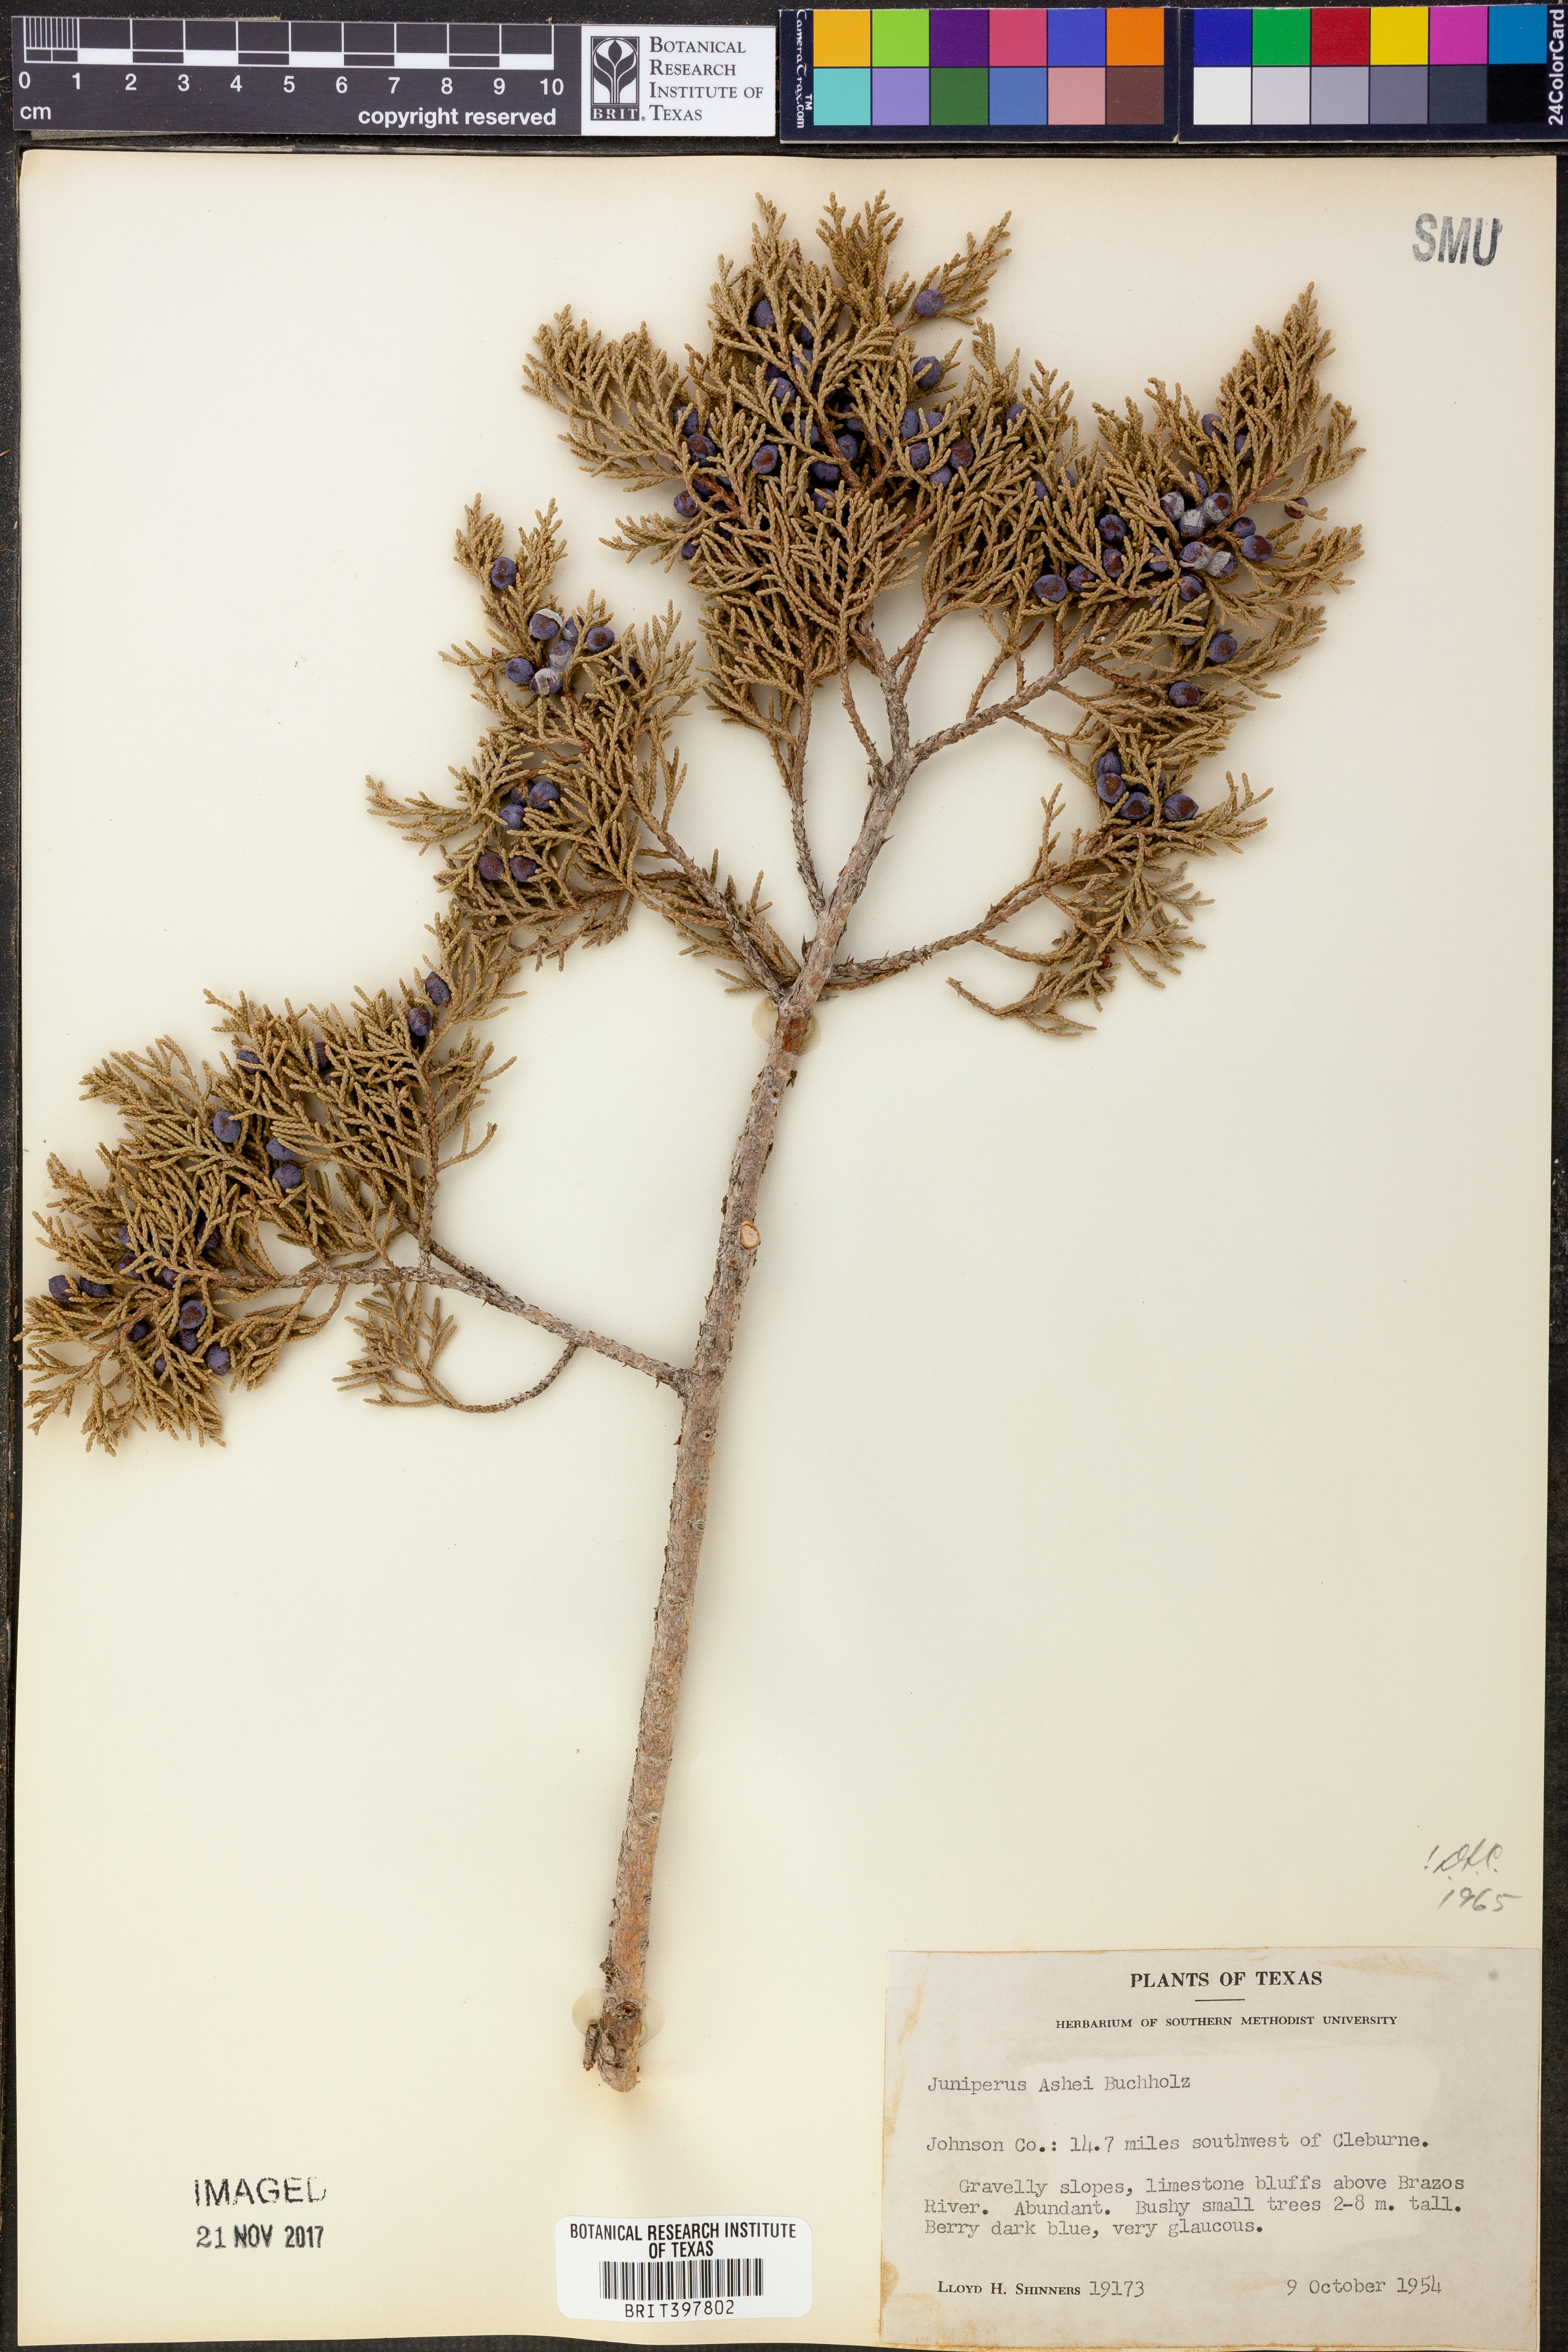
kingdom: Plantae
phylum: Tracheophyta
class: Pinopsida
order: Pinales
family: Cupressaceae
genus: Juniperus
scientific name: Juniperus ashei
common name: Mexican juniper
